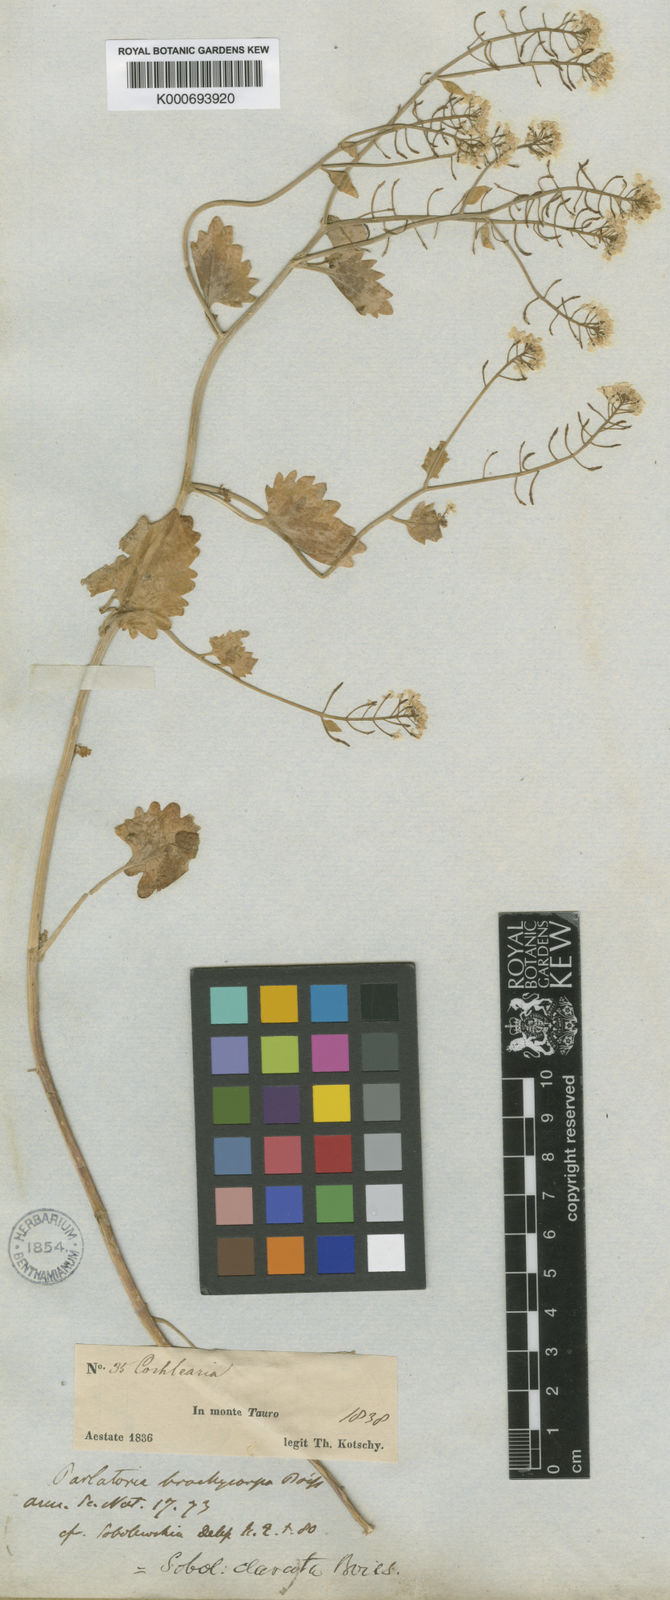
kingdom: Plantae
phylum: Tracheophyta
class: Magnoliopsida
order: Brassicales
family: Brassicaceae
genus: Sobolewskia
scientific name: Sobolewskia clavata
